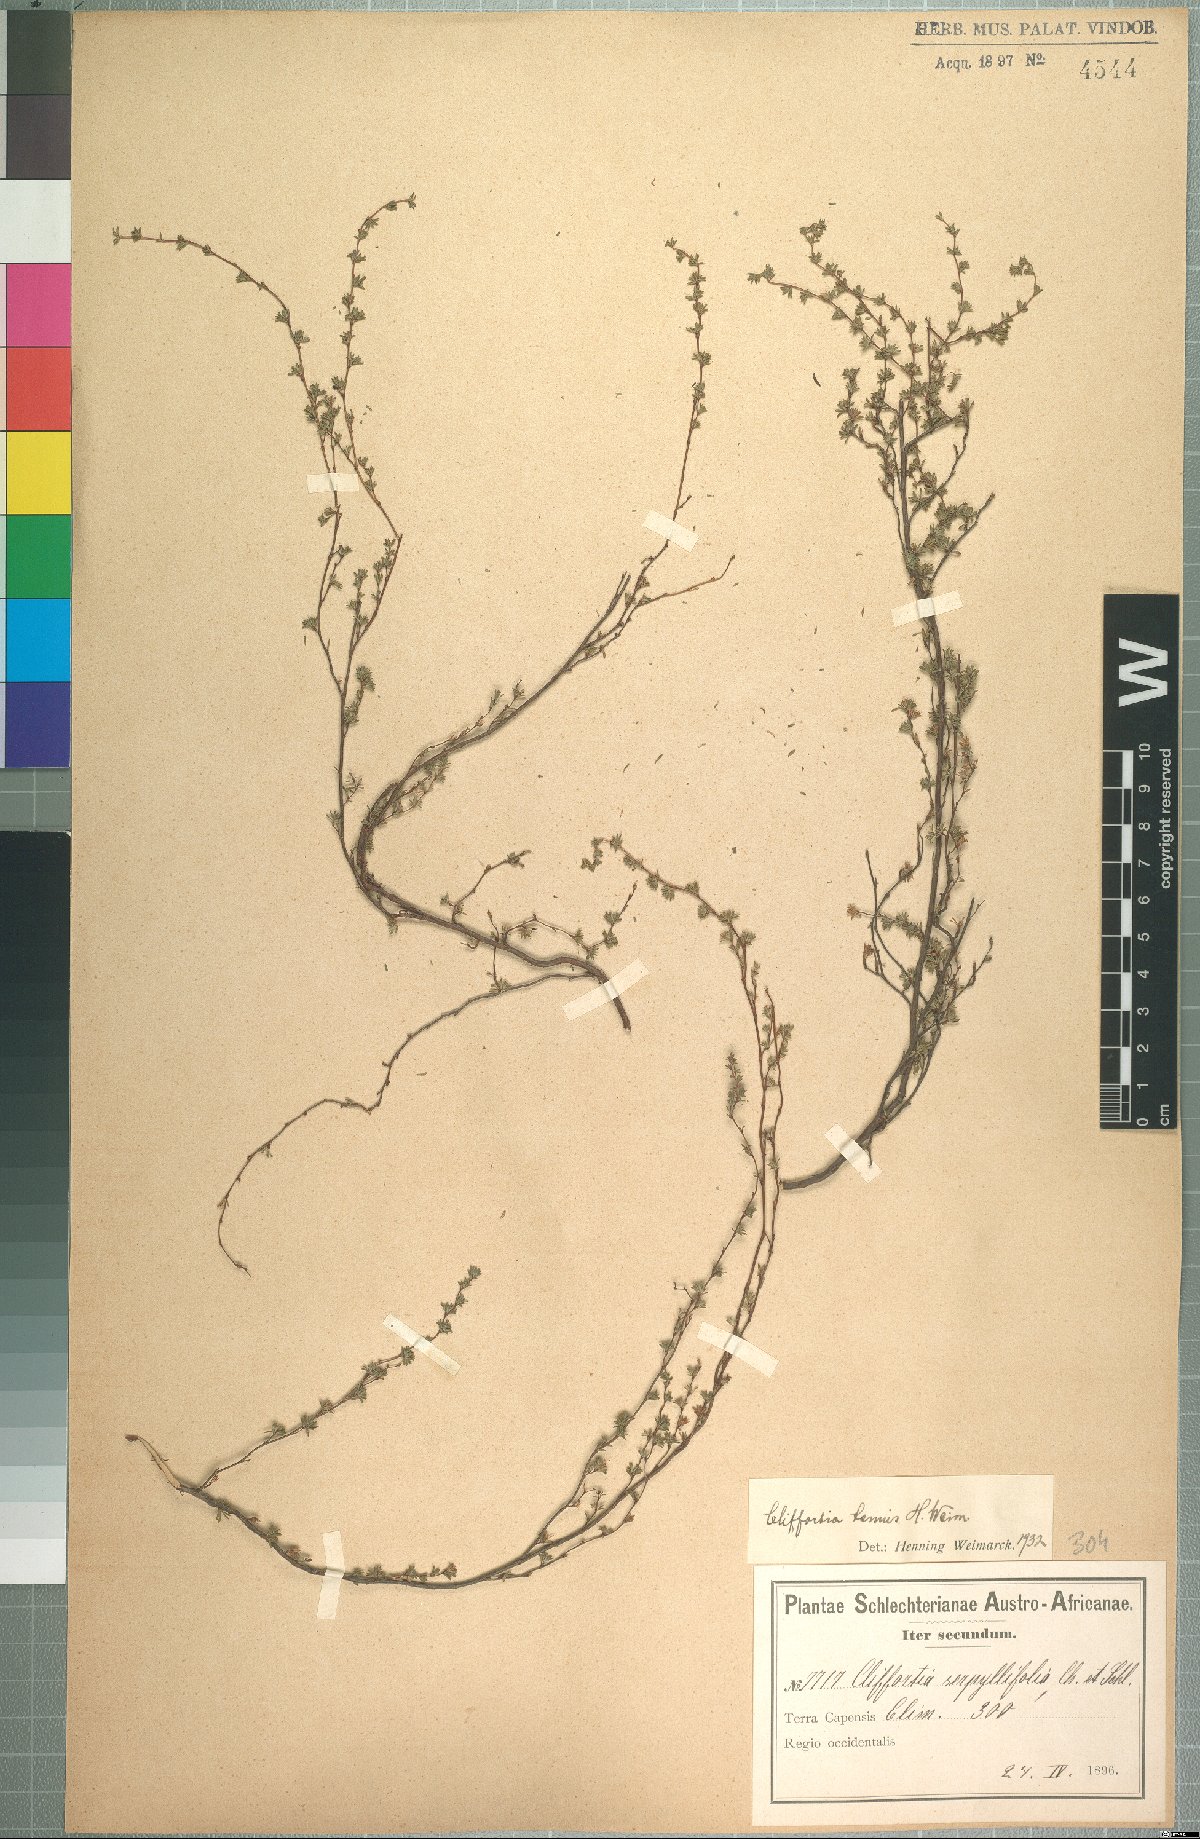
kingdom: Plantae
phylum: Tracheophyta
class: Magnoliopsida
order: Rosales
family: Rosaceae
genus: Cliffortia
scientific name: Cliffortia marginata
